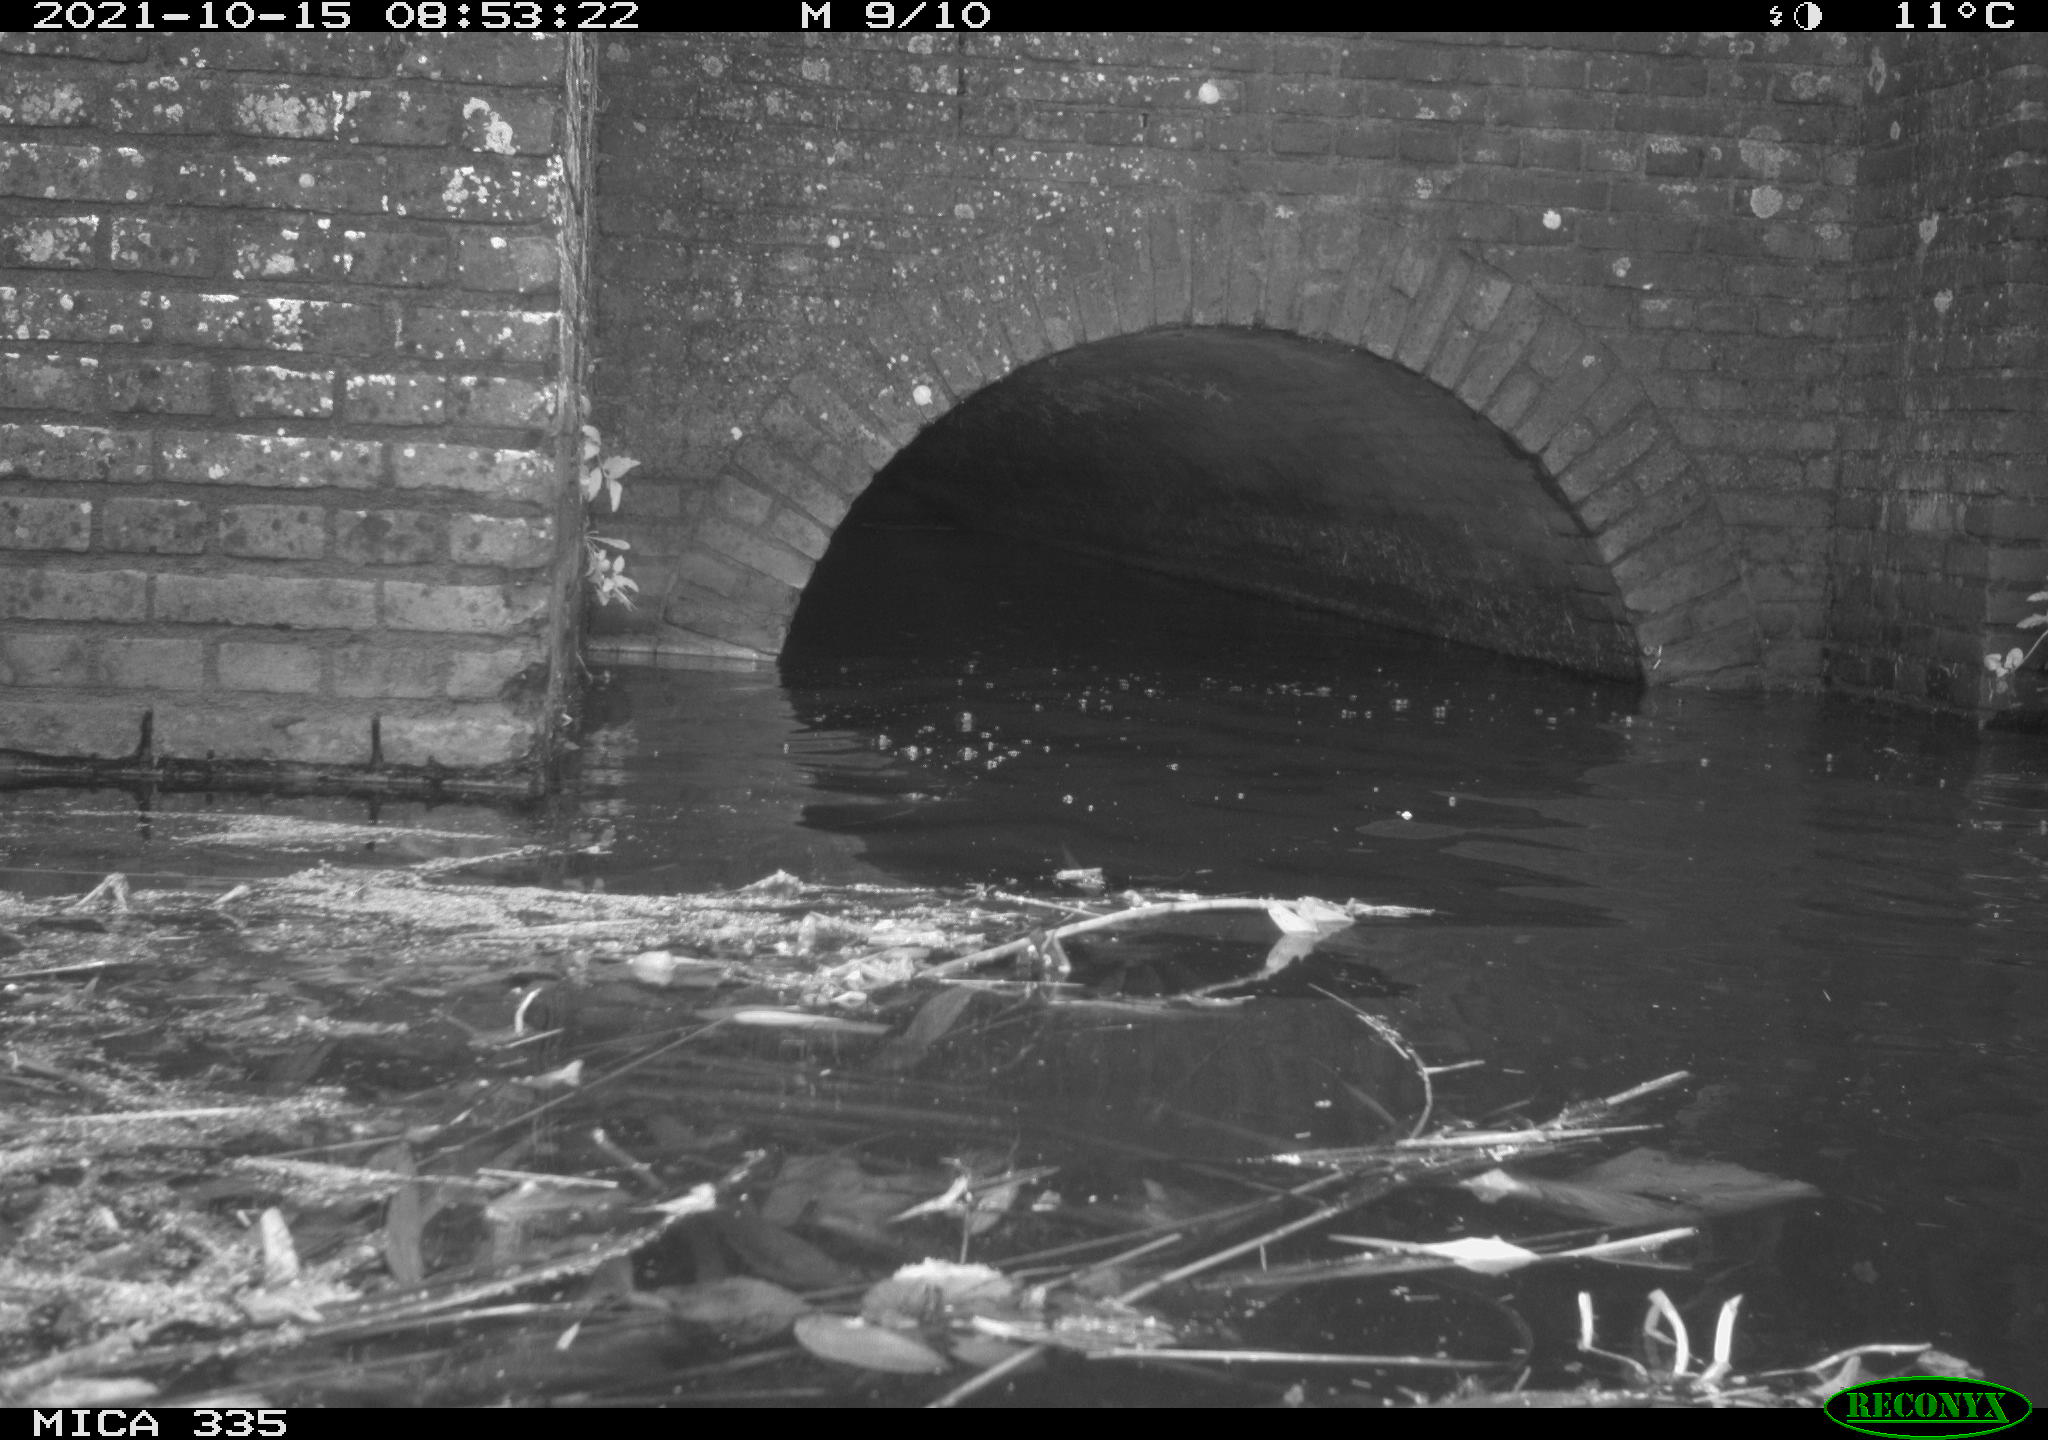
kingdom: Animalia
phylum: Chordata
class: Aves
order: Anseriformes
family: Anatidae
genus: Anas
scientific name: Anas platyrhynchos
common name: Mallard
